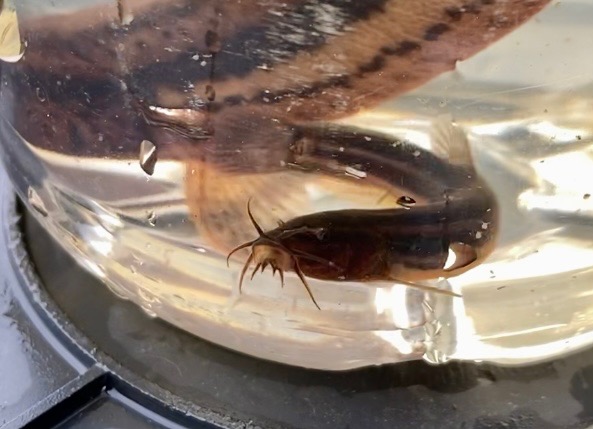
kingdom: Animalia
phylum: Chordata
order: Cypriniformes
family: Cobitidae
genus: Misgurnus
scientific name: Misgurnus fossilis
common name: Dyndsmerling
